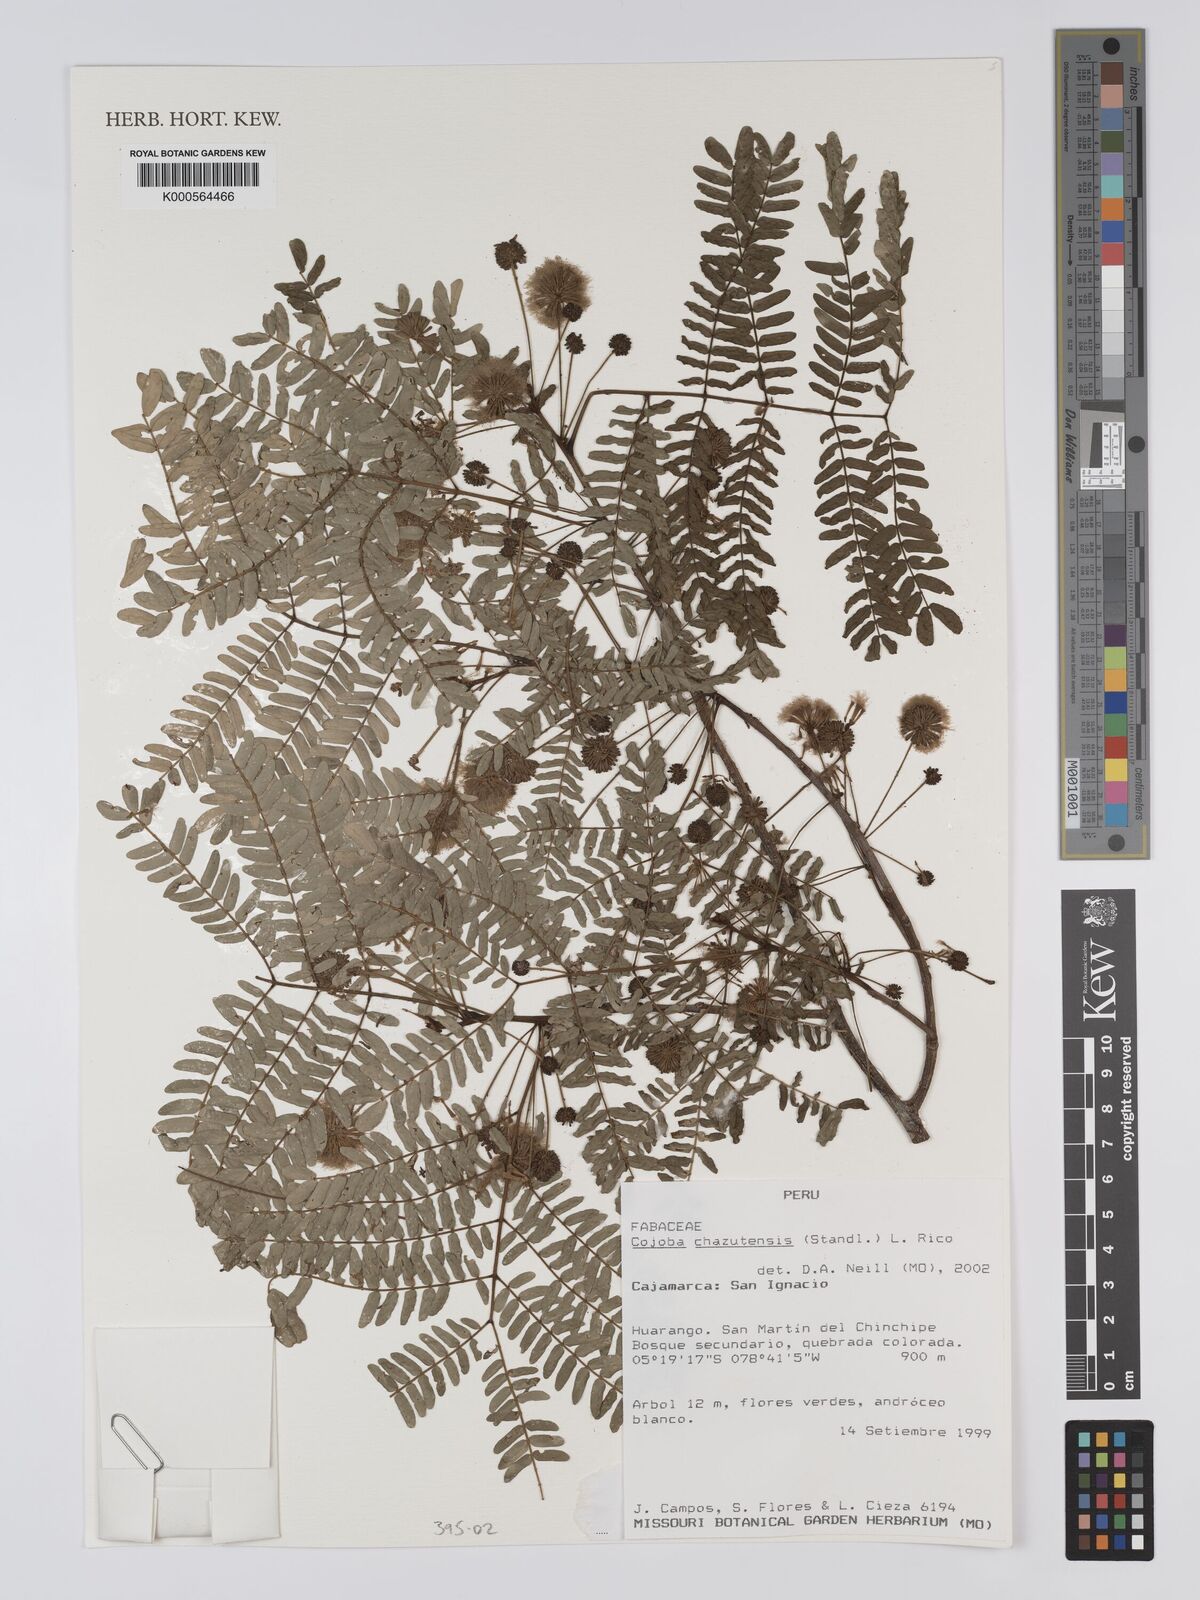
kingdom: Plantae
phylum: Tracheophyta
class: Magnoliopsida
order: Fabales
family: Fabaceae
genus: Cojoba
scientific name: Cojoba chazutensis
